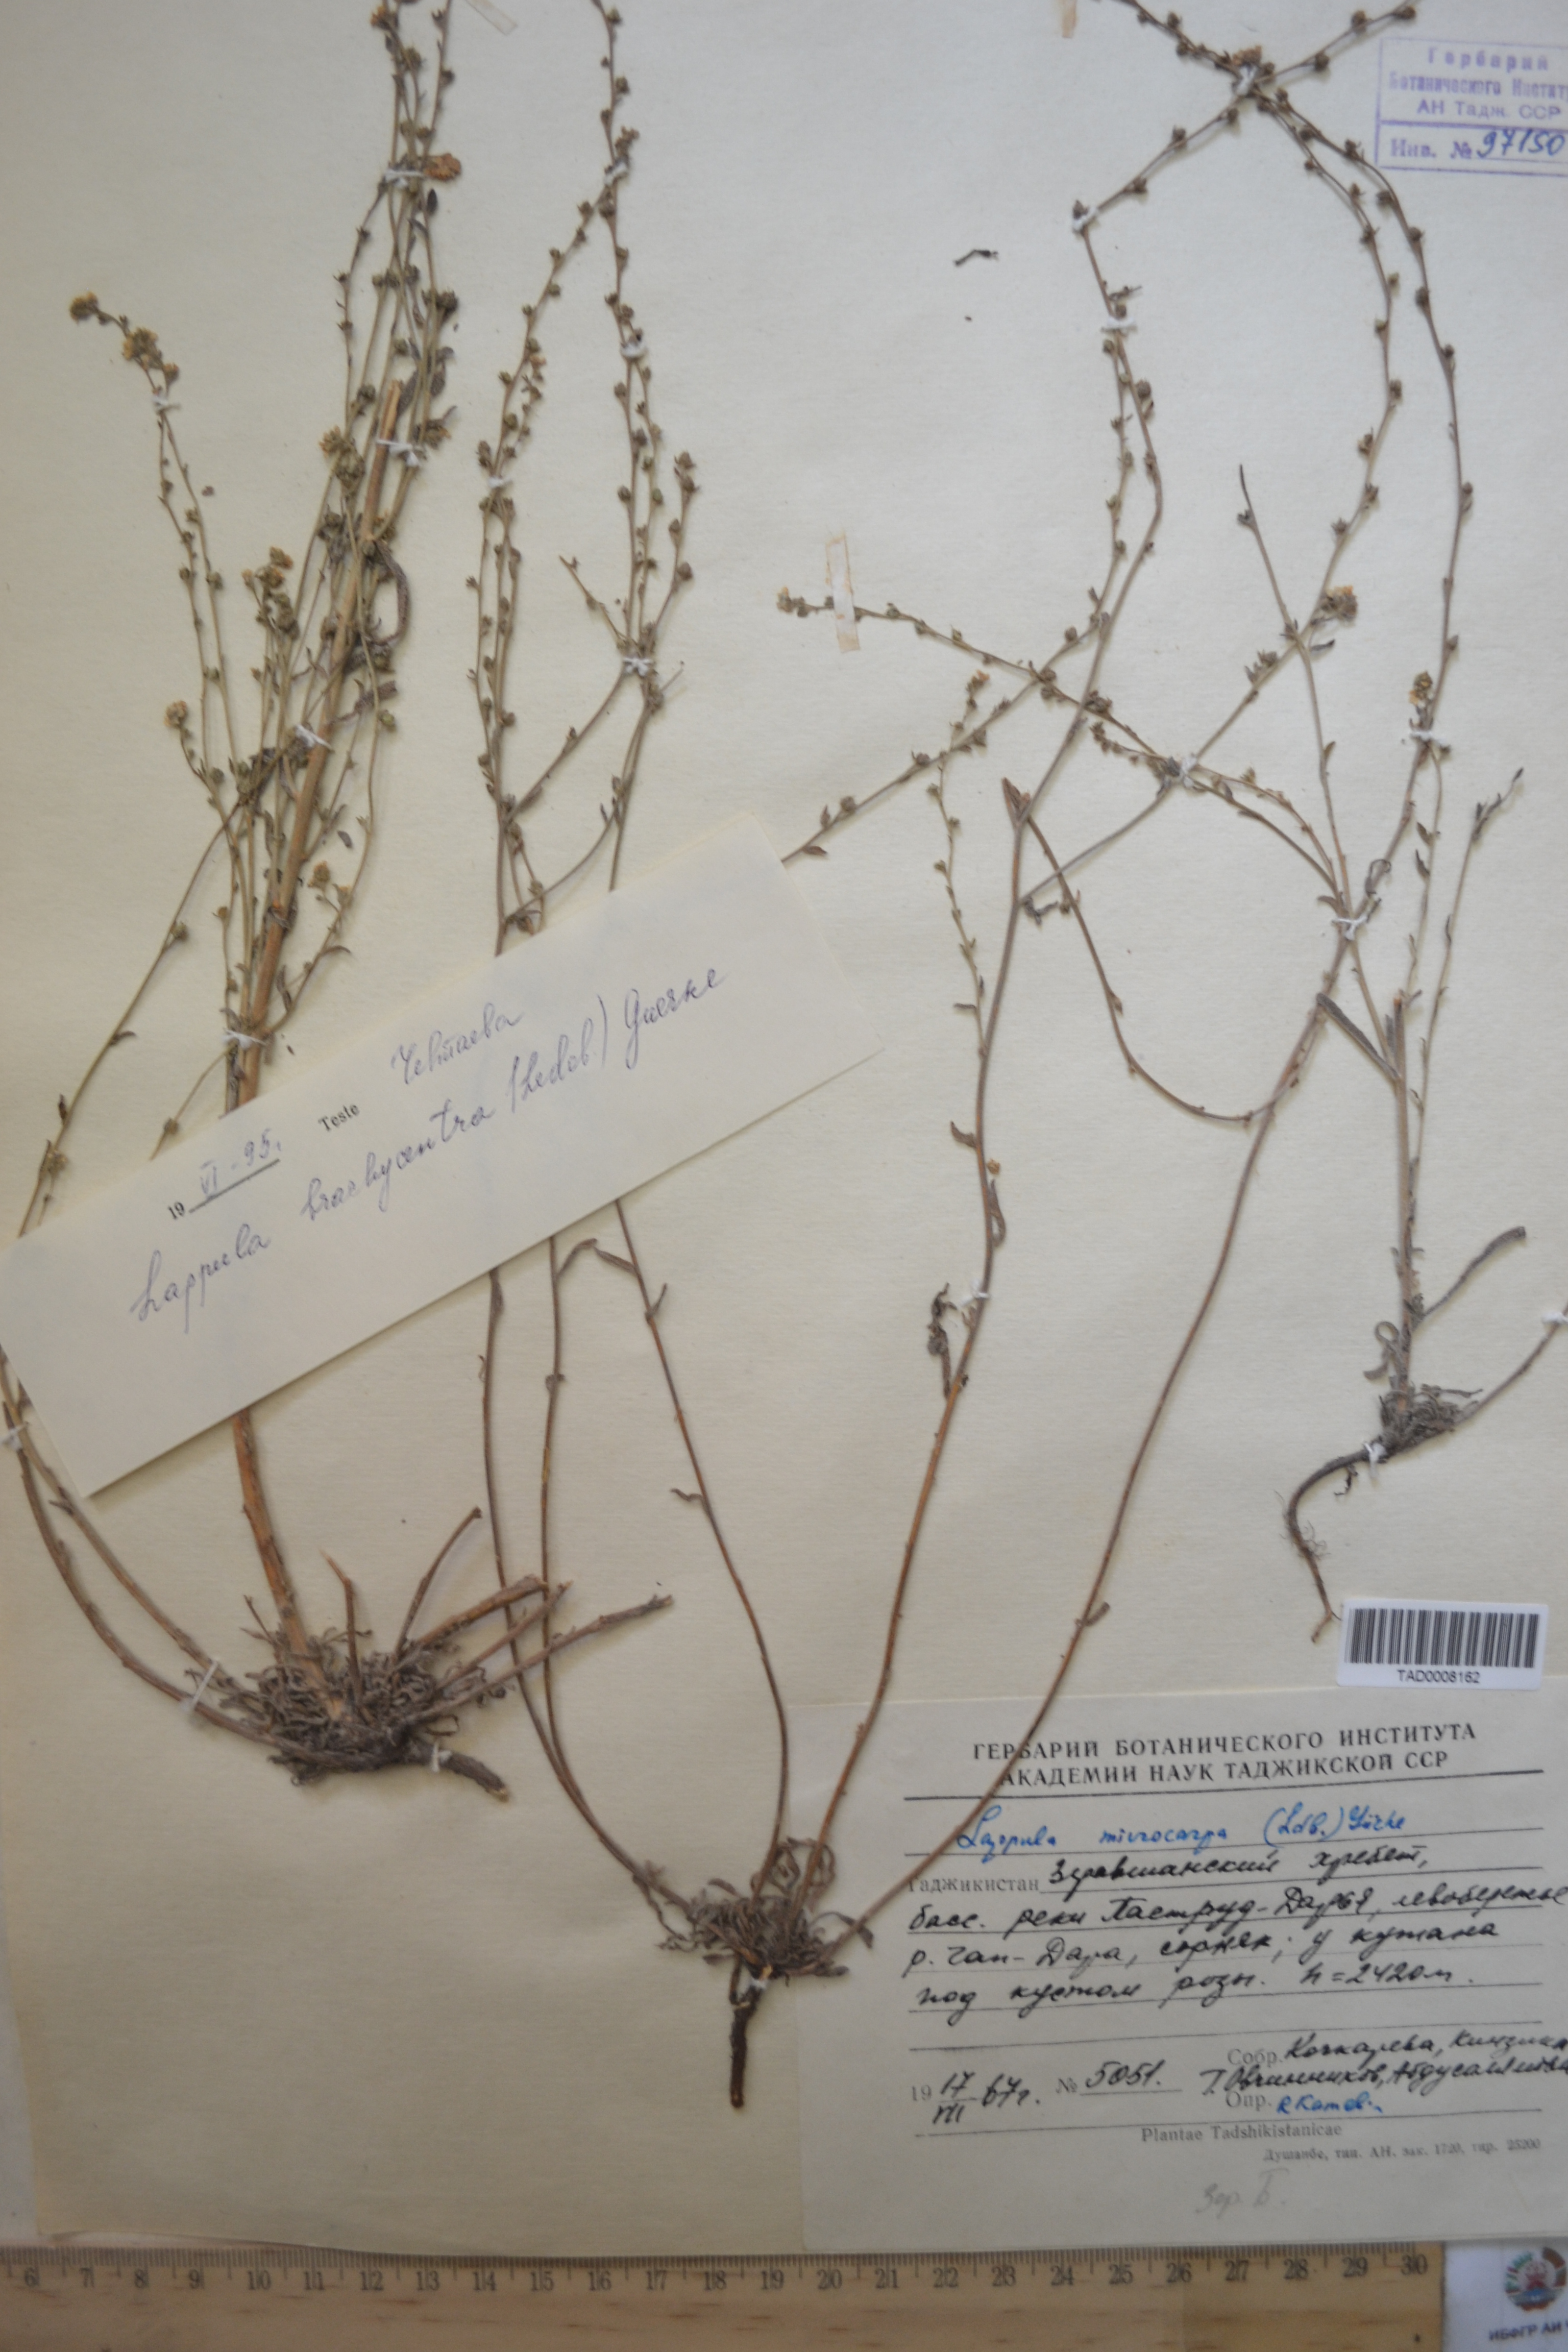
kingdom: Plantae
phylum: Tracheophyta
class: Magnoliopsida
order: Boraginales
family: Boraginaceae
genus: Lappula
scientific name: Lappula microcarpa
